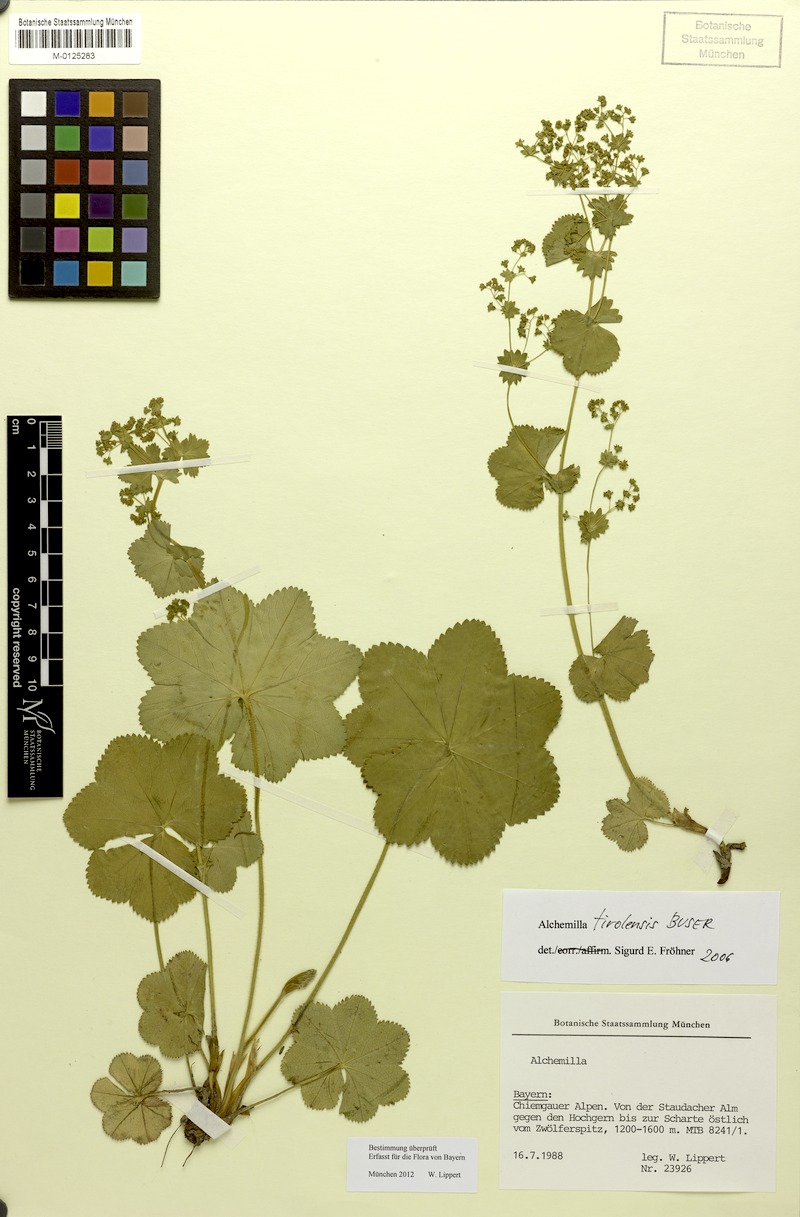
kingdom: Plantae
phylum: Tracheophyta
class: Magnoliopsida
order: Rosales
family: Rosaceae
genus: Alchemilla
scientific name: Alchemilla tirolensis
